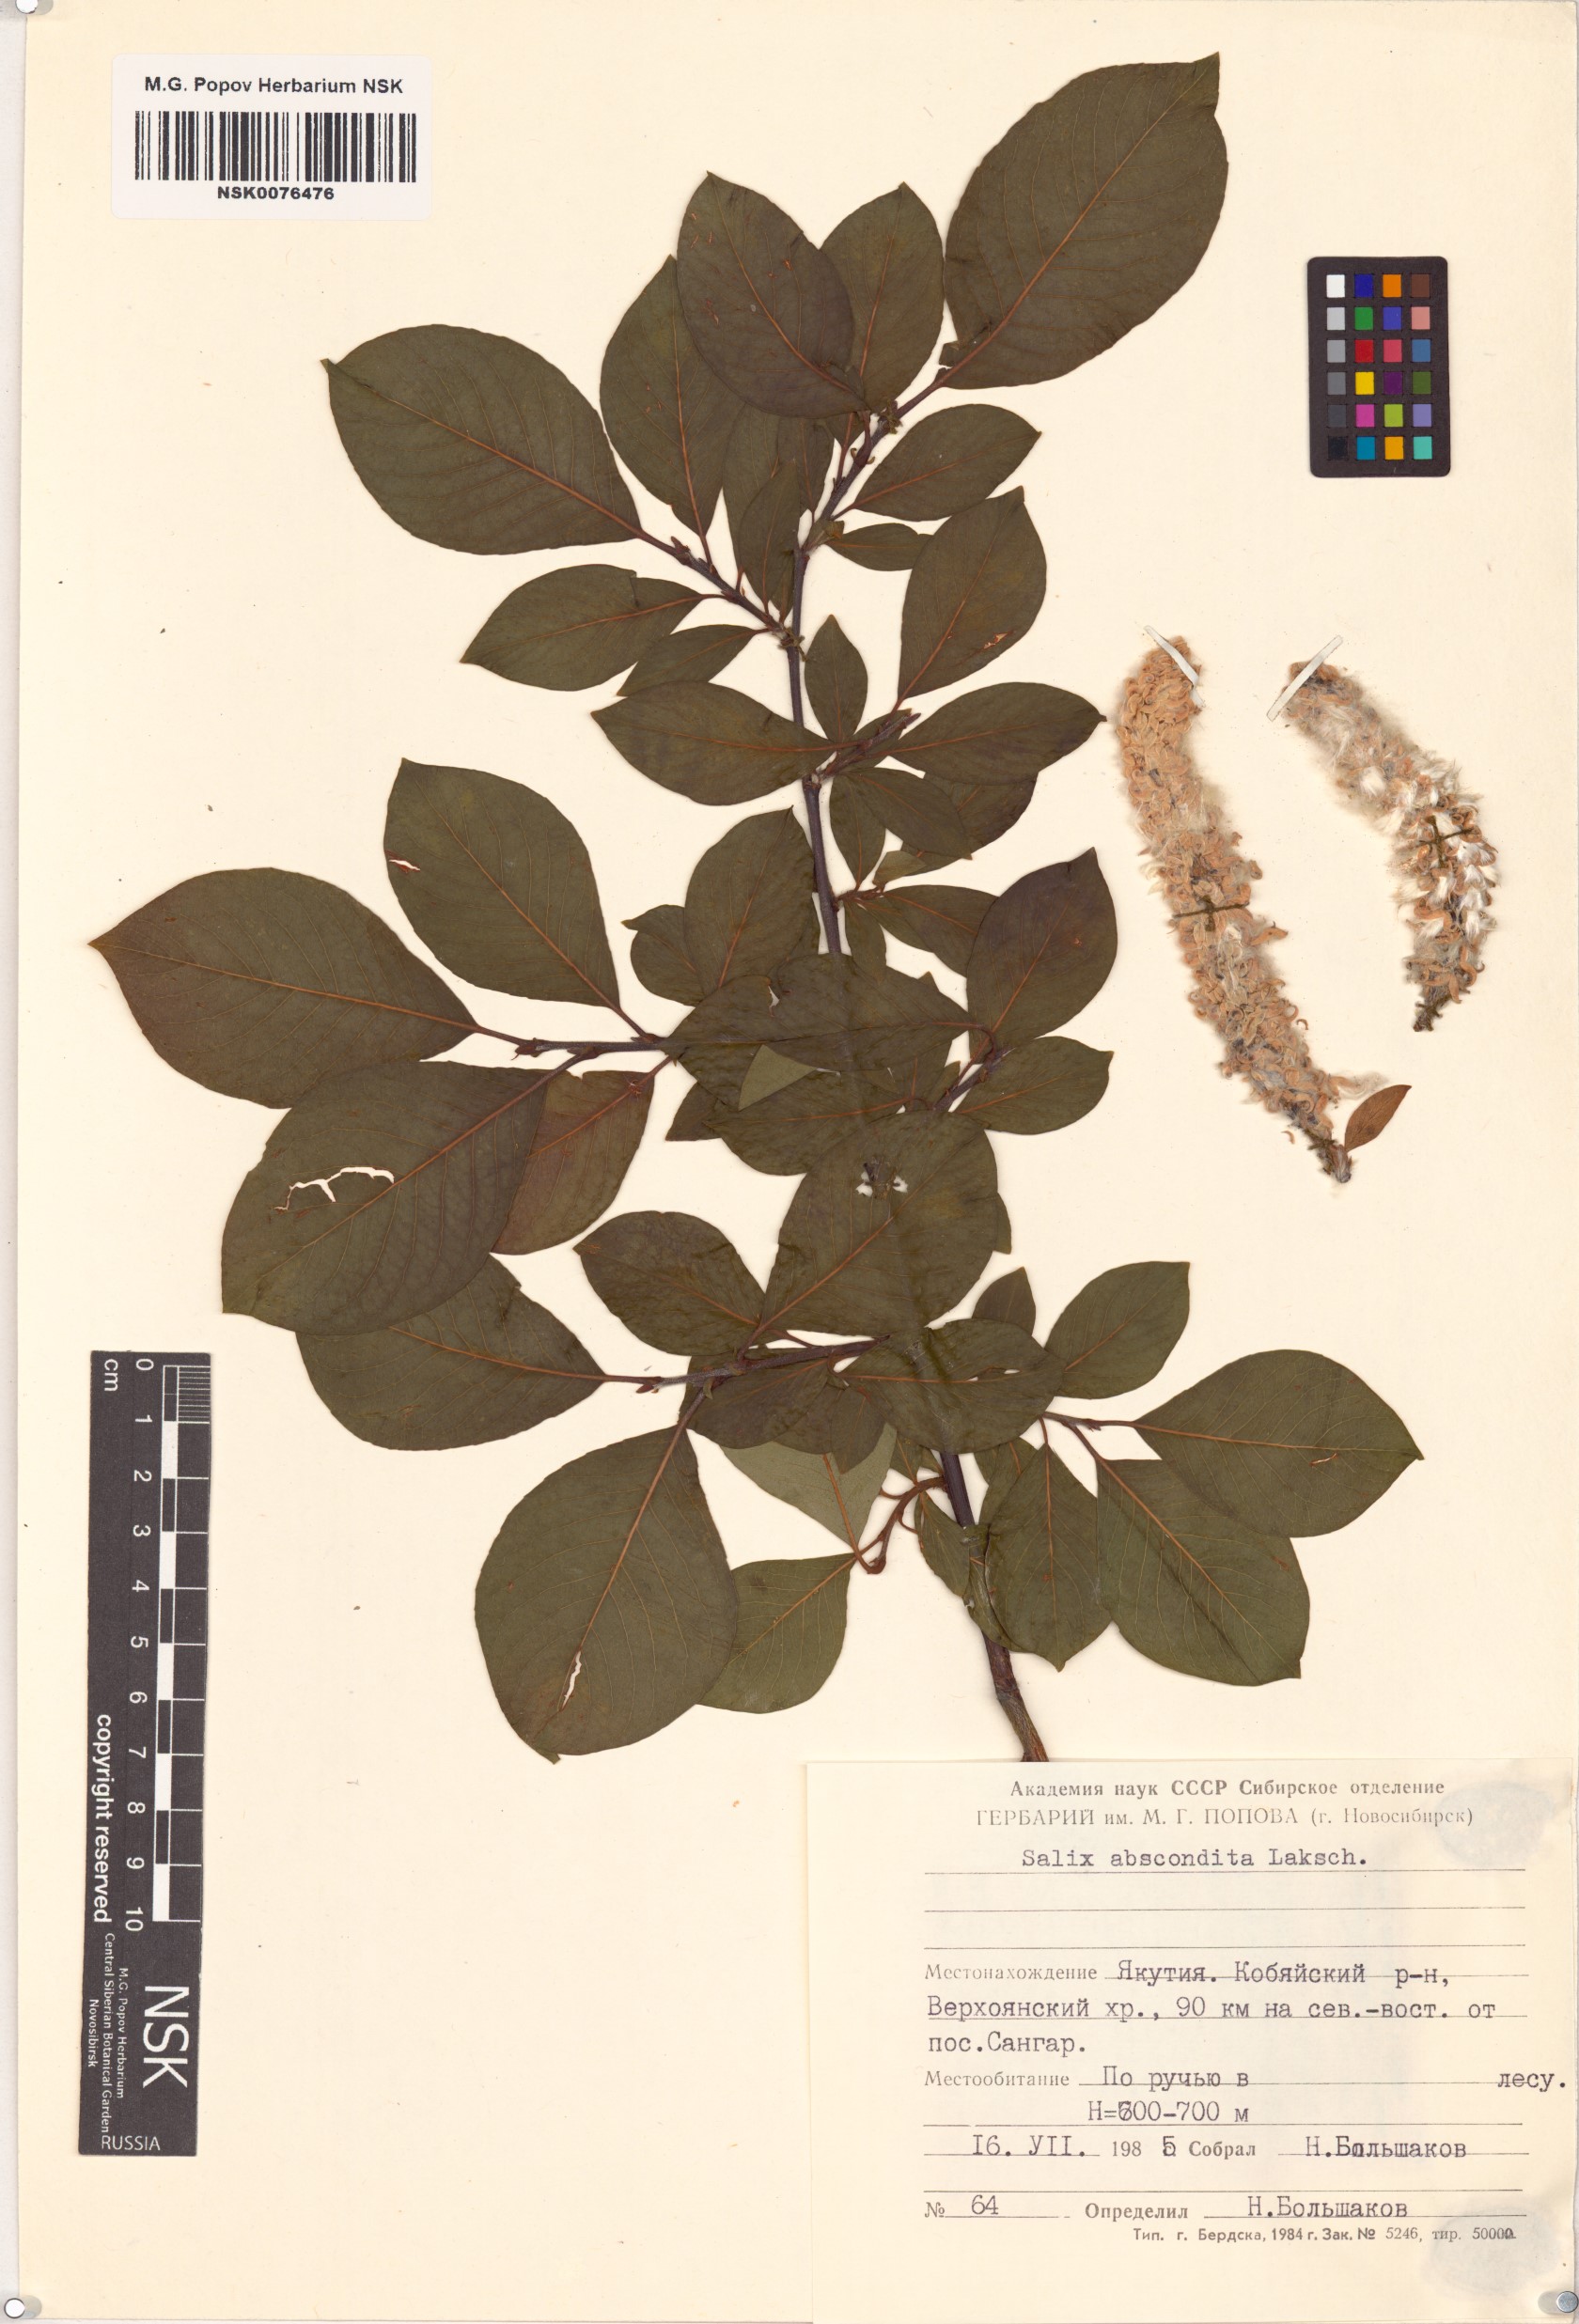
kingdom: Plantae
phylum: Tracheophyta
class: Magnoliopsida
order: Malpighiales
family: Salicaceae
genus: Salix
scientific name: Salix abscondita
